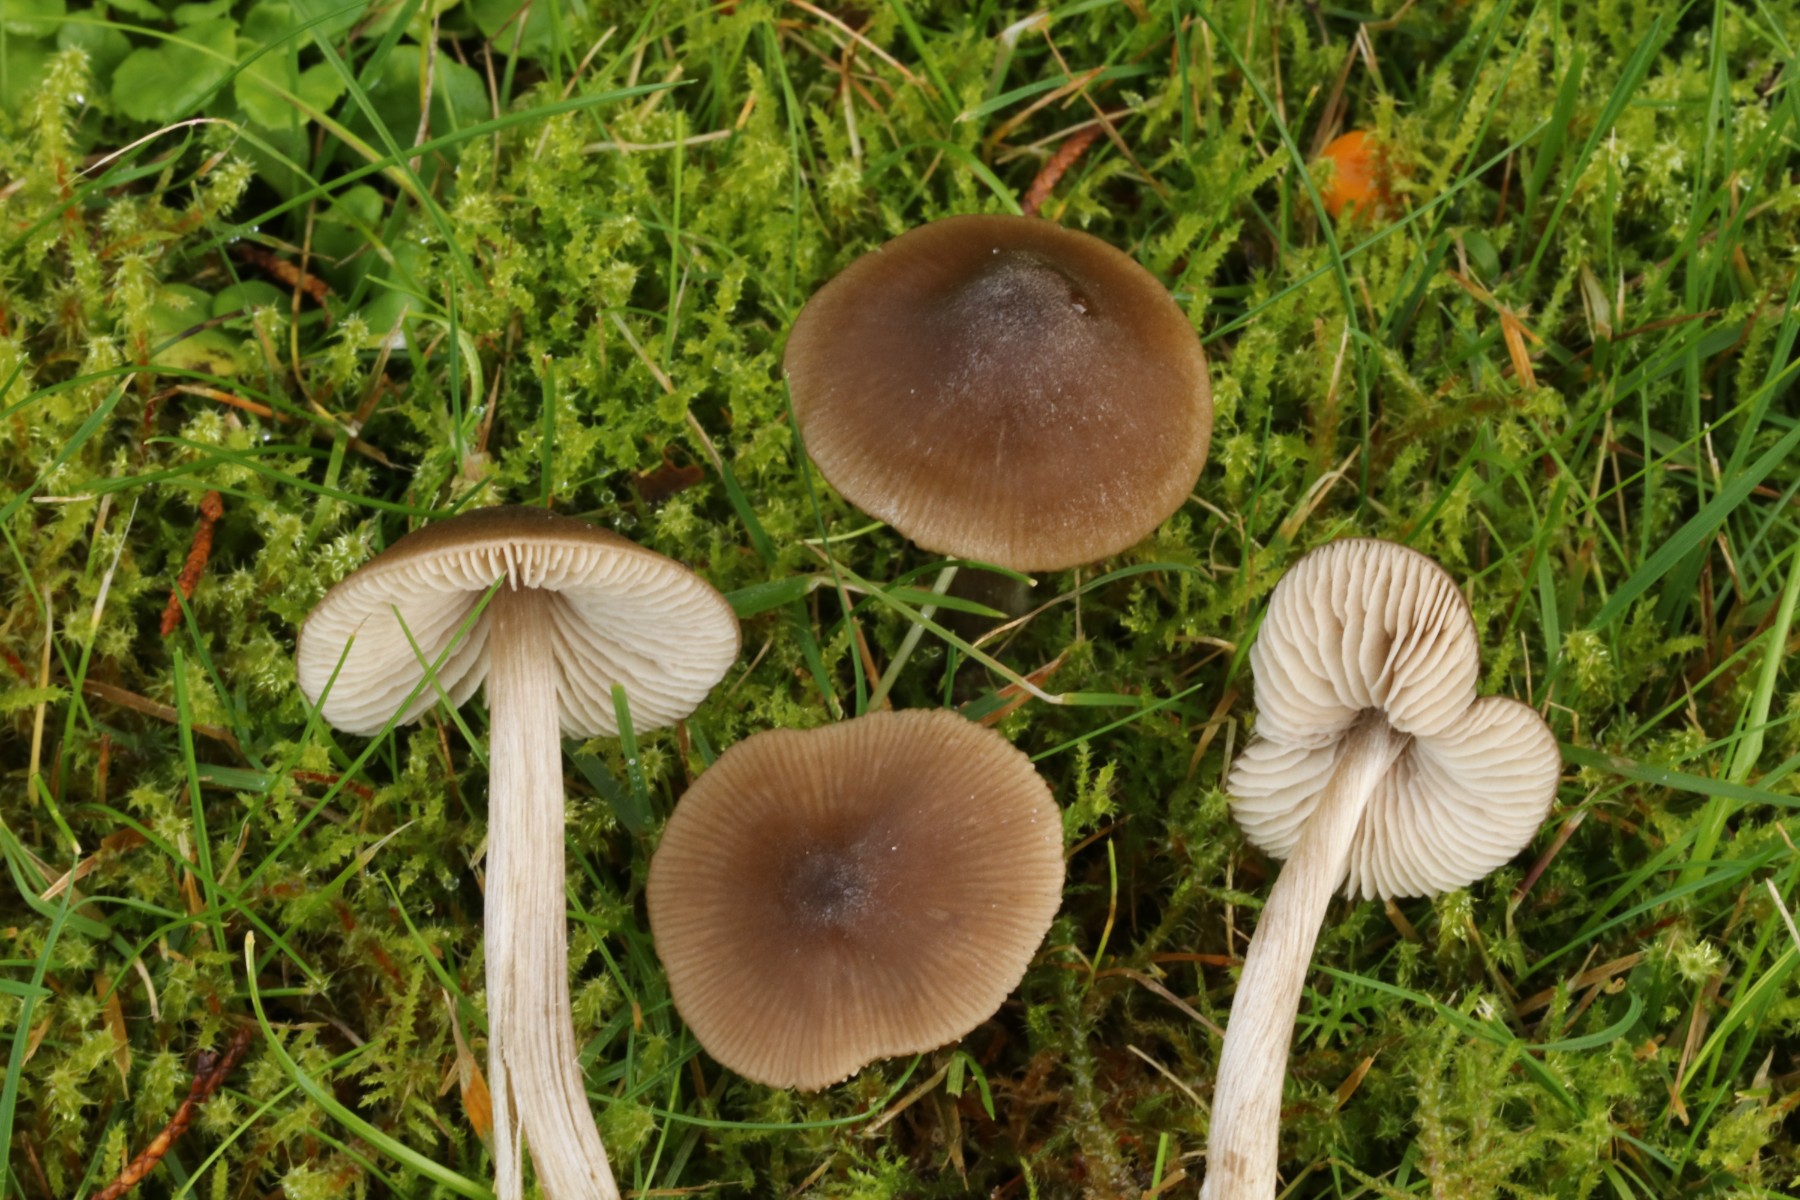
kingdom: Fungi
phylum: Basidiomycota
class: Agaricomycetes
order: Agaricales
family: Entolomataceae
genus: Entoloma
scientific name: Entoloma conferendum
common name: stjernesporet rødblad
